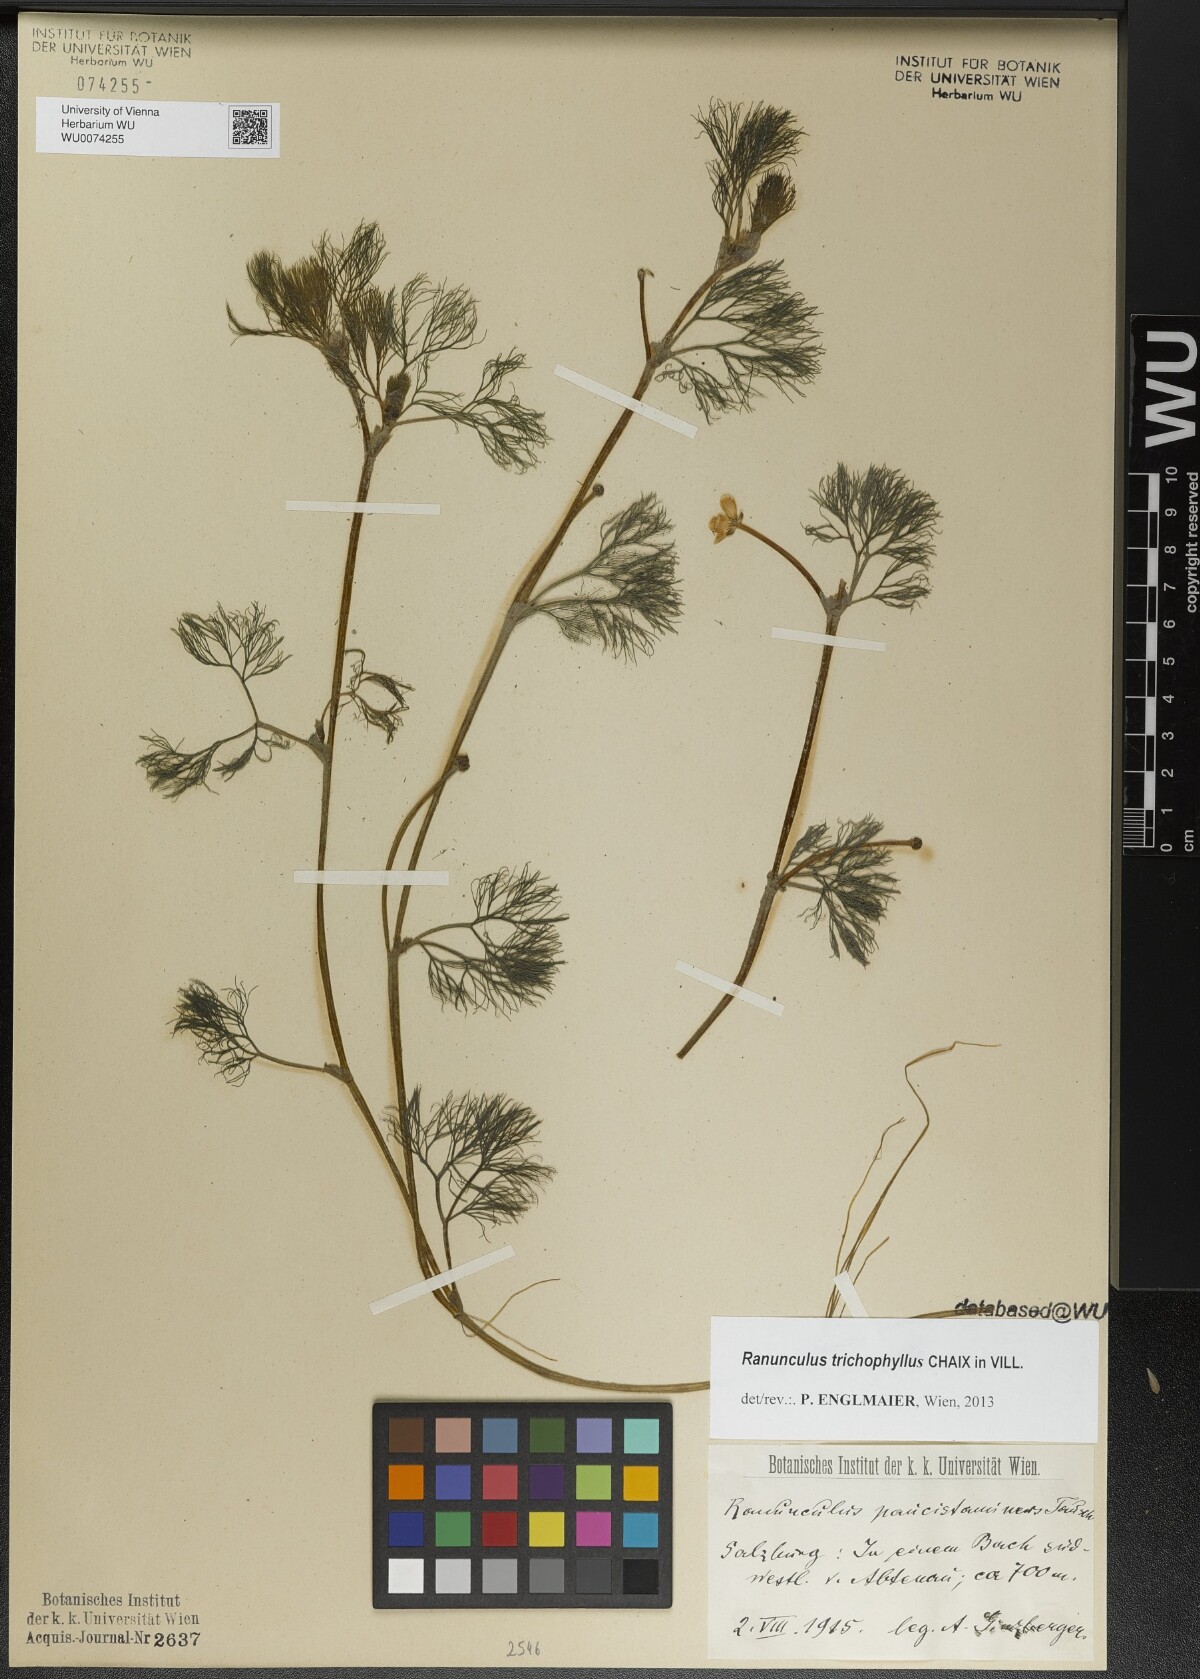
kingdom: Plantae
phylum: Tracheophyta
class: Magnoliopsida
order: Ranunculales
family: Ranunculaceae
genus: Ranunculus
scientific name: Ranunculus trichophyllus
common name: Thread-leaved water-crowfoot
